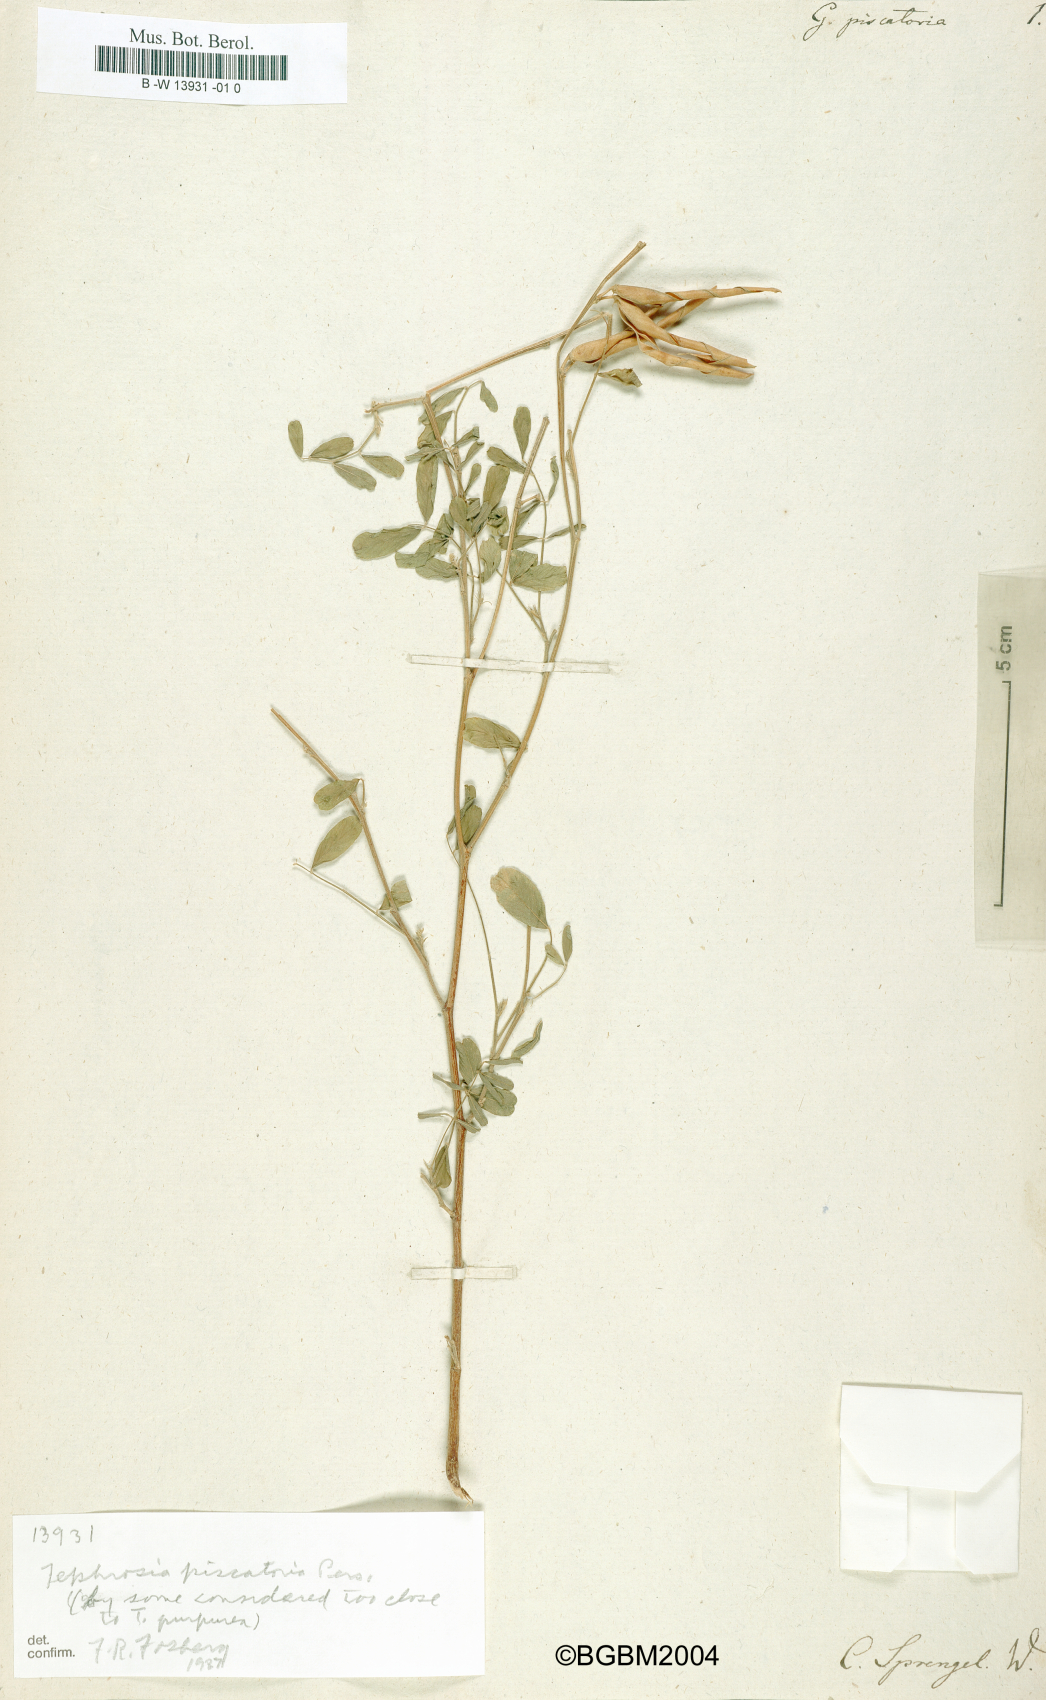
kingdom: Plantae
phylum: Tracheophyta
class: Magnoliopsida
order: Fabales
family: Fabaceae
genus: Tephrosia
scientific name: Tephrosia purpurea
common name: Fishpoison
